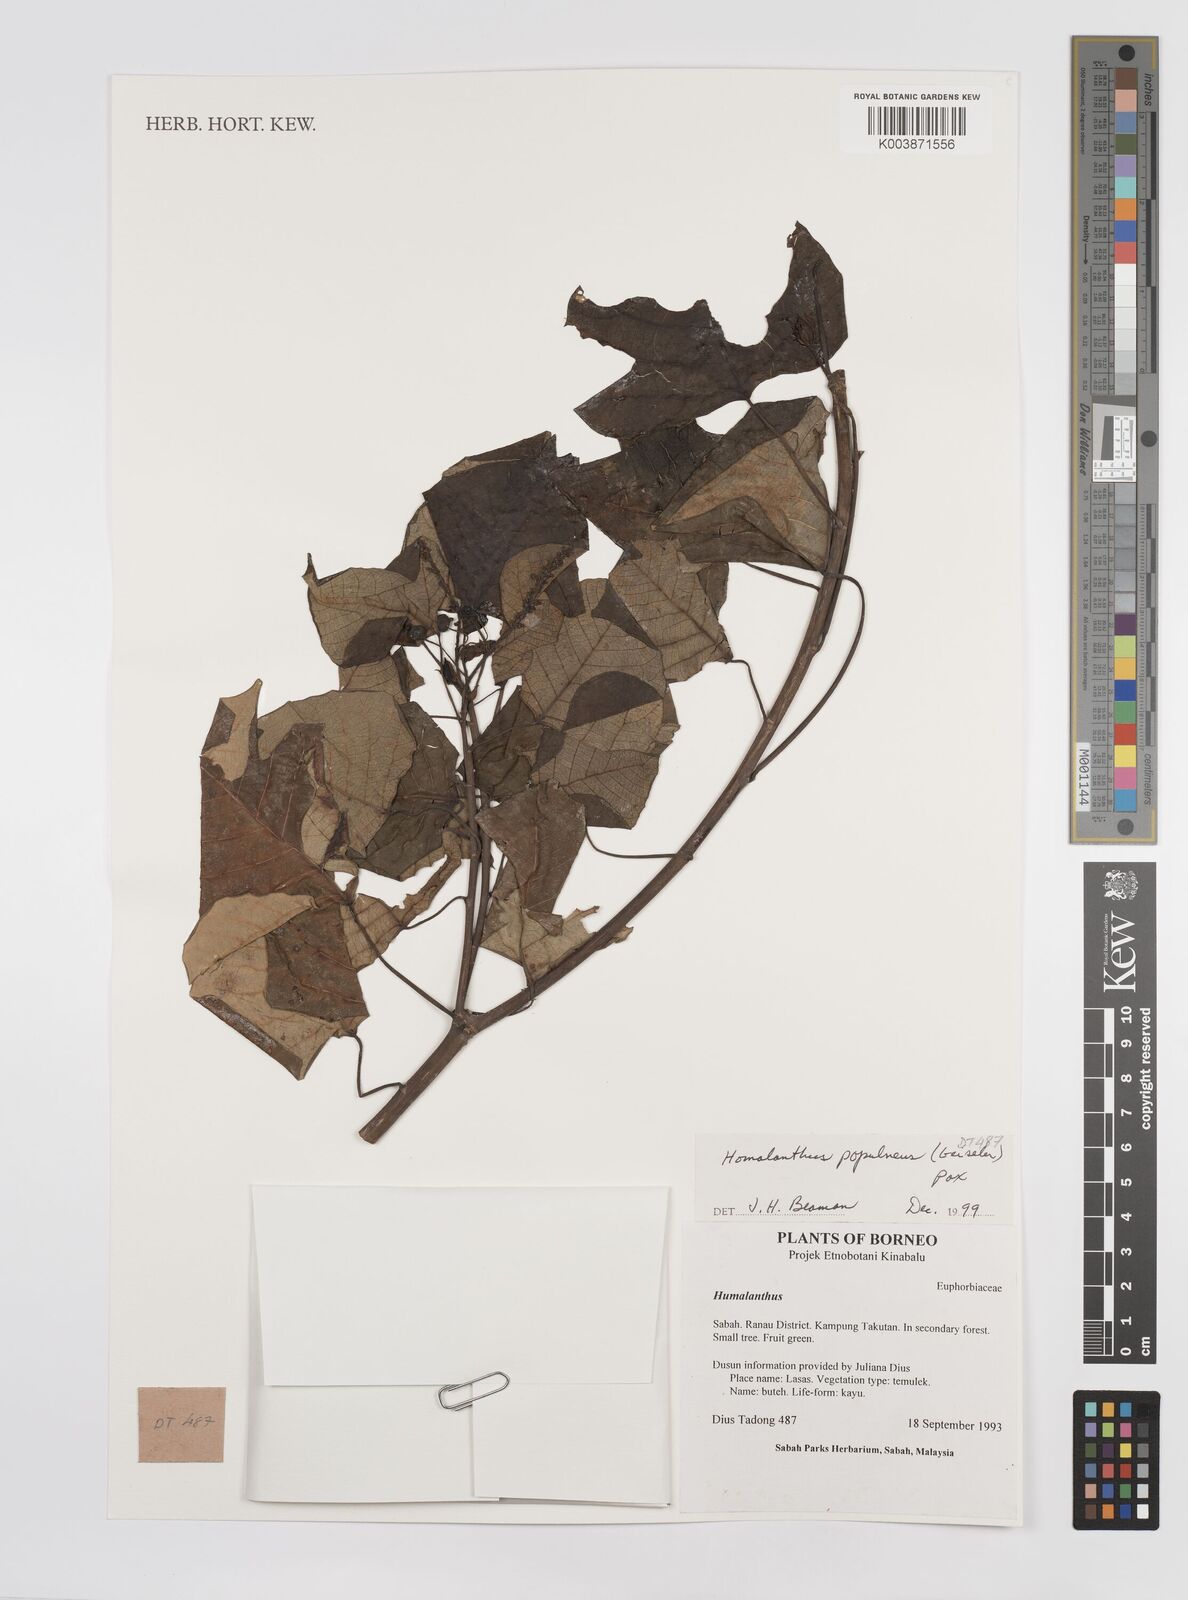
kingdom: Plantae
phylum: Tracheophyta
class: Magnoliopsida
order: Malpighiales
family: Euphorbiaceae
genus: Homalanthus
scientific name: Homalanthus populneus
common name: Spurge
